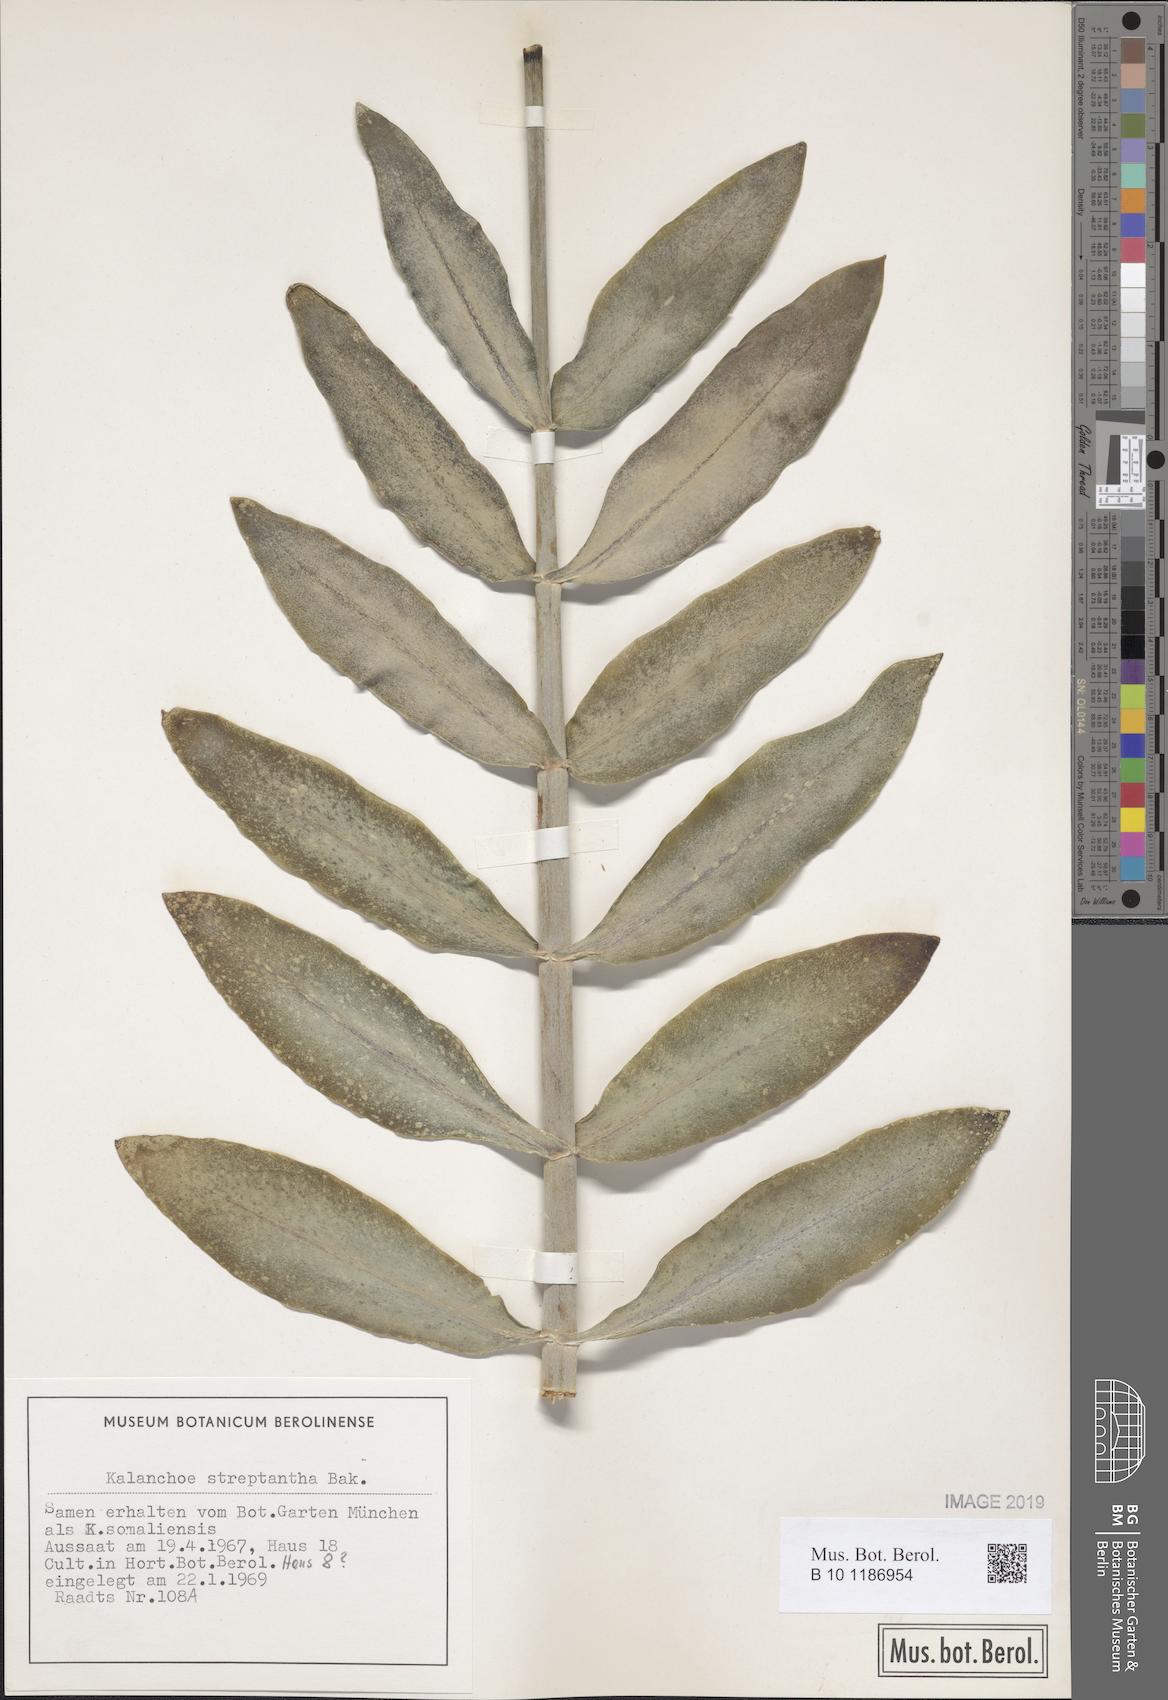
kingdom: Plantae
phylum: Tracheophyta
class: Magnoliopsida
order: Saxifragales
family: Crassulaceae
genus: Kalanchoe
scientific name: Kalanchoe streptantha
